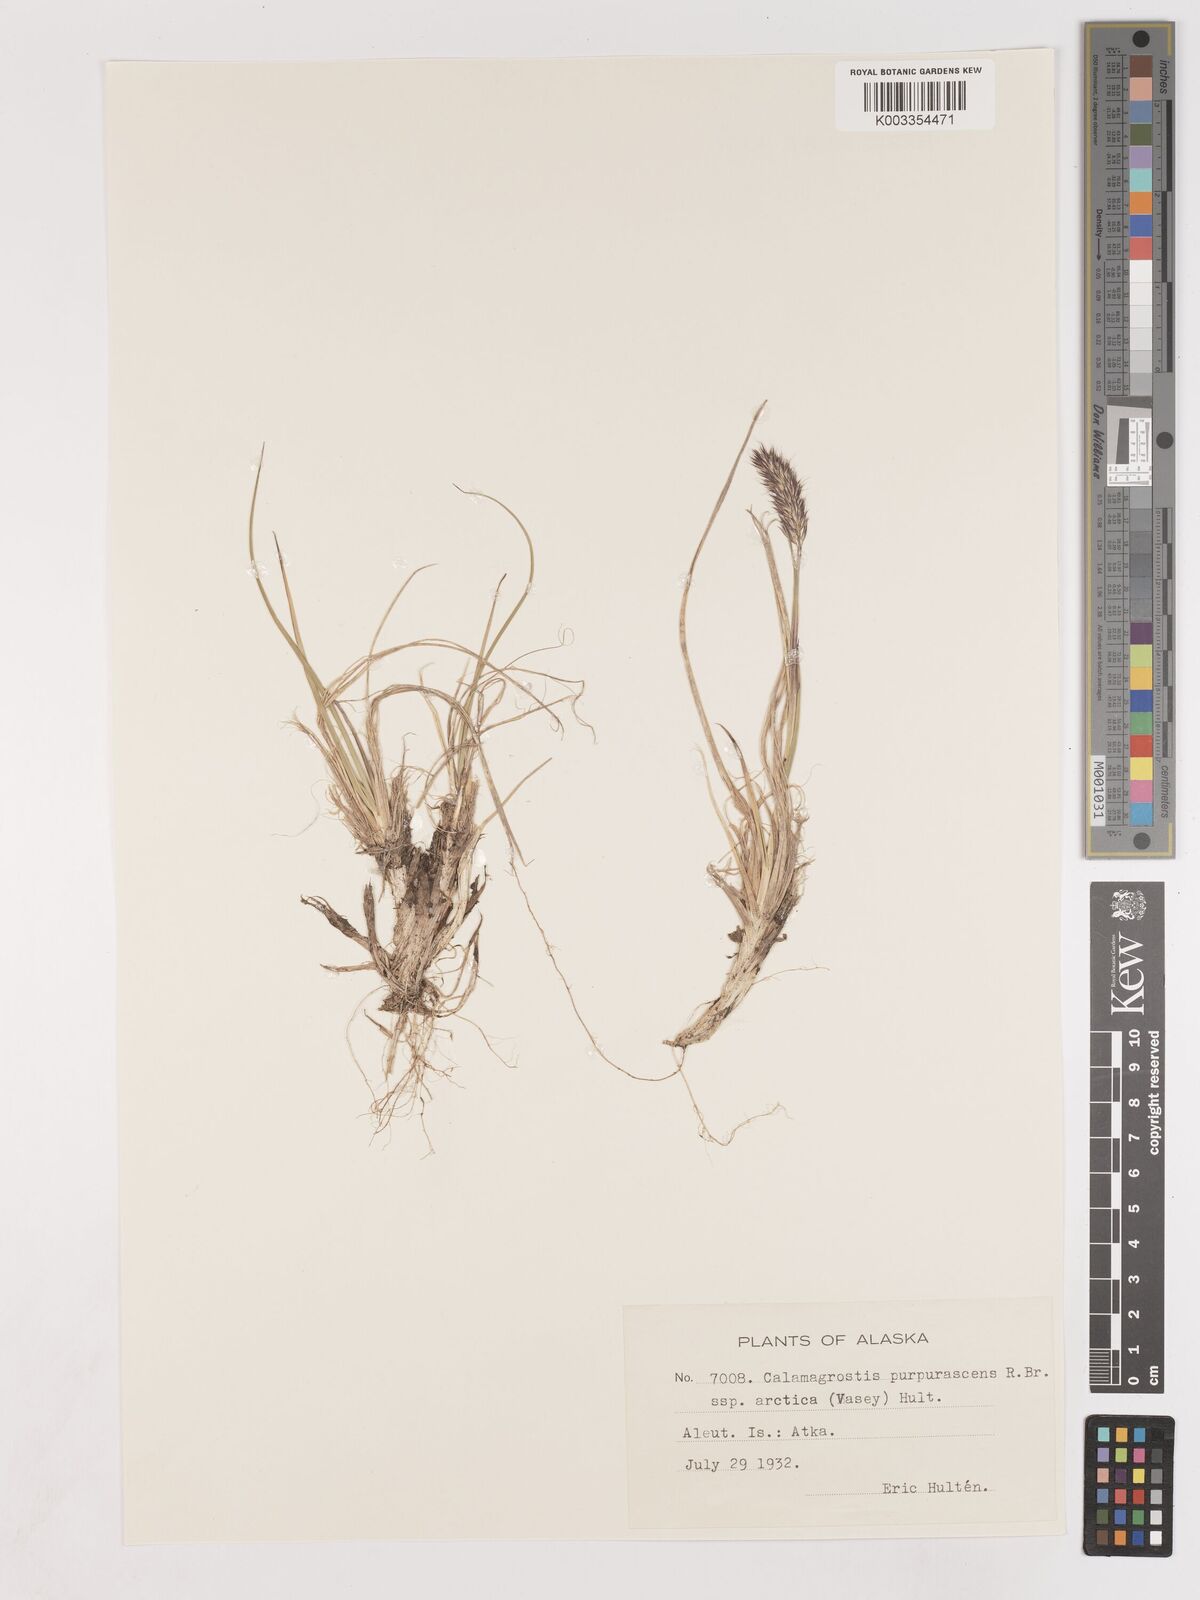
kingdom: Plantae
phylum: Tracheophyta
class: Liliopsida
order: Poales
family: Poaceae
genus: Calamagrostis
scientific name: Calamagrostis purpurascens
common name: Purple reedgrass
